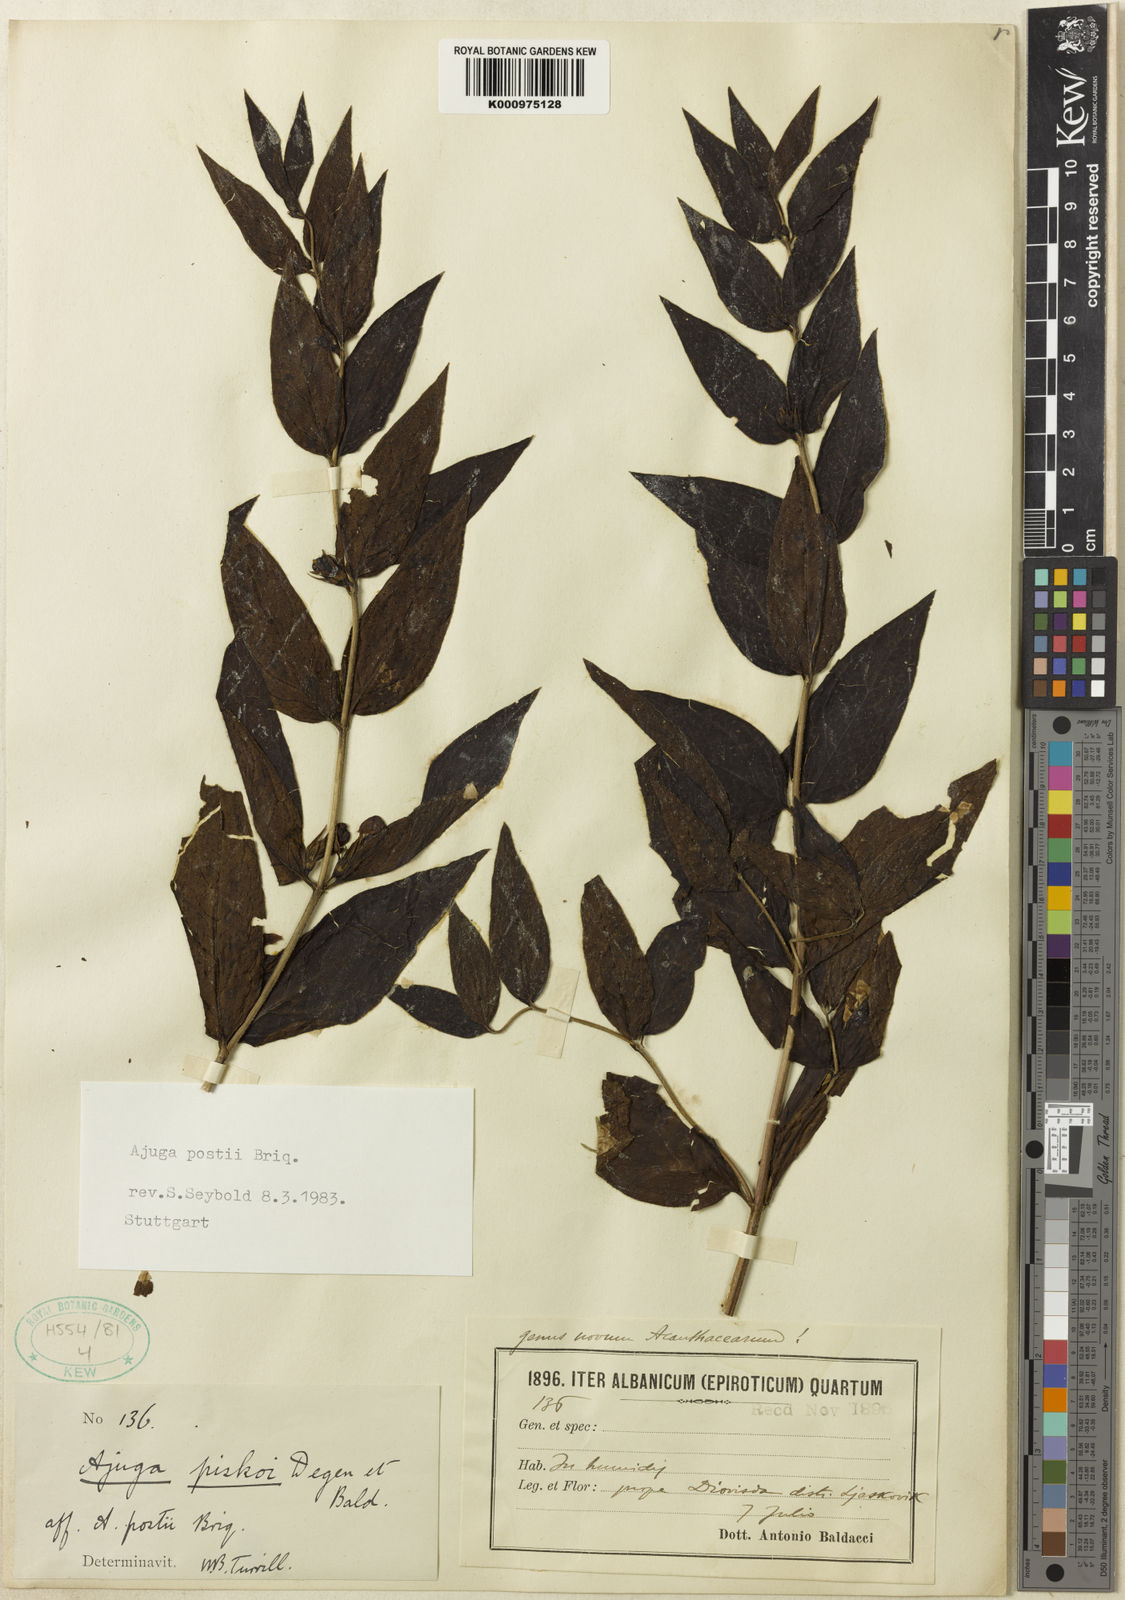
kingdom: Plantae
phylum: Tracheophyta
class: Magnoliopsida
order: Lamiales
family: Lamiaceae
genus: Ajuga
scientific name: Ajuga piskoi
